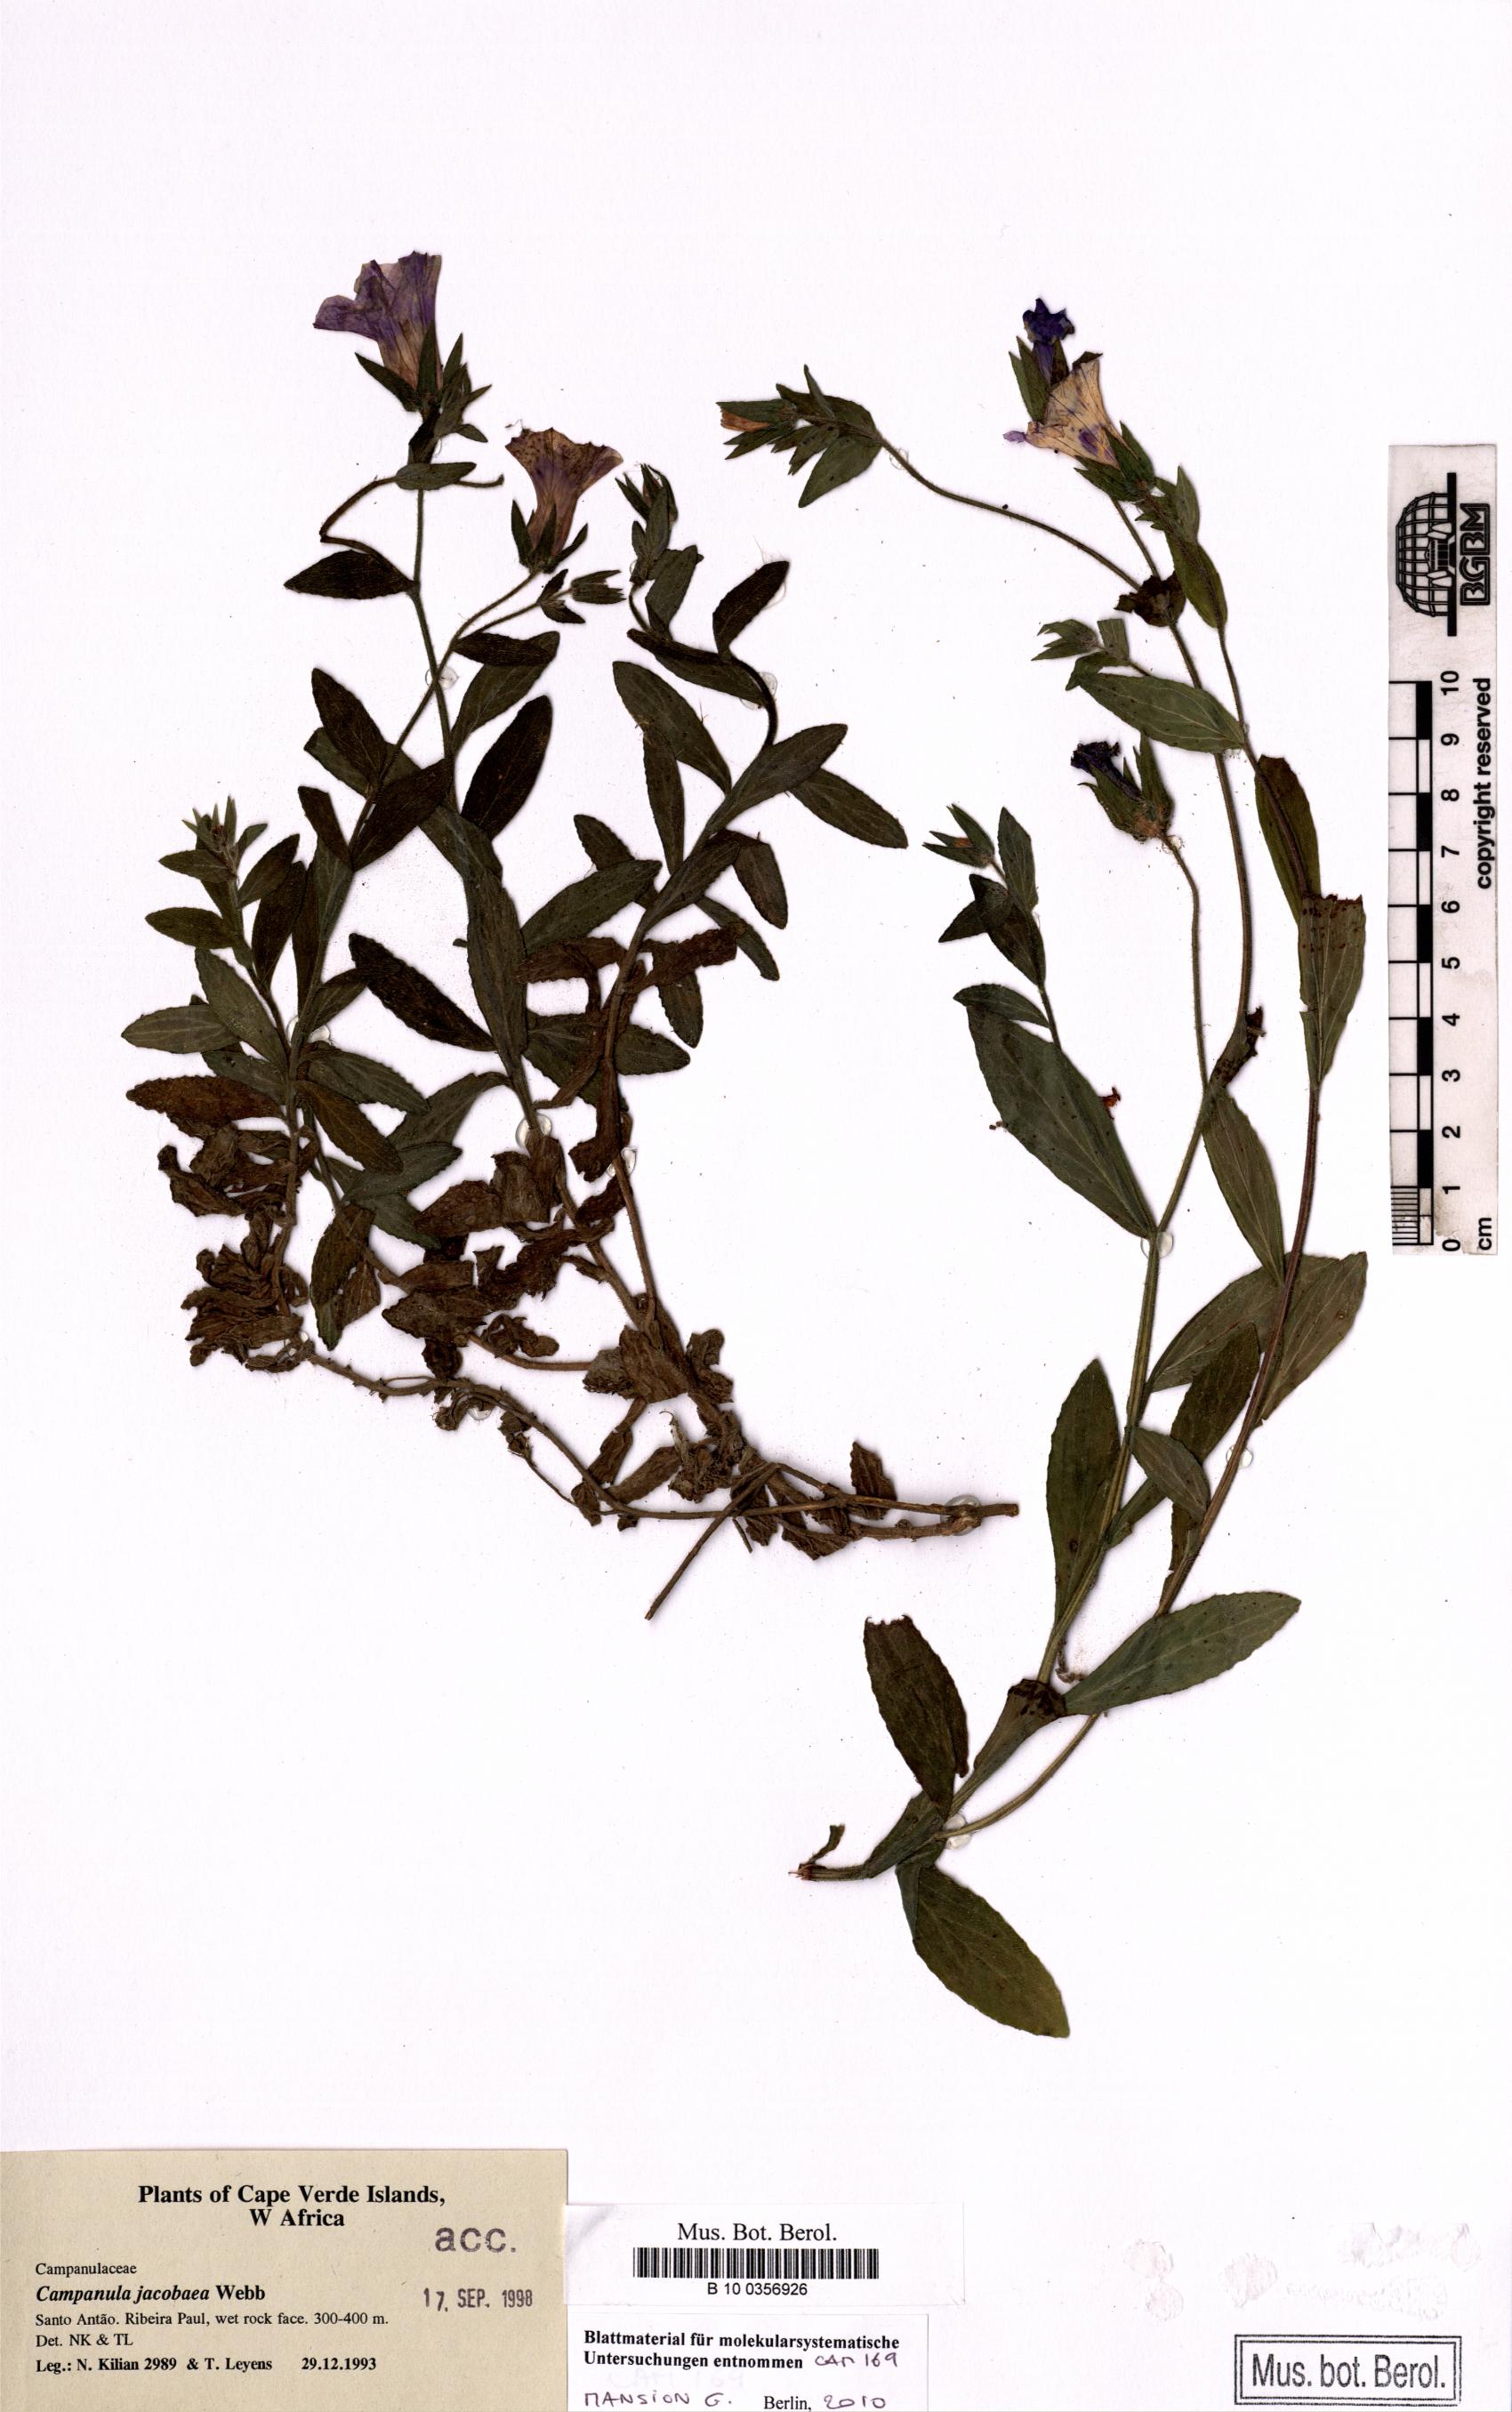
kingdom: Plantae
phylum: Tracheophyta
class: Magnoliopsida
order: Asterales
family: Campanulaceae
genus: Campanula
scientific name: Campanula jacobaea
